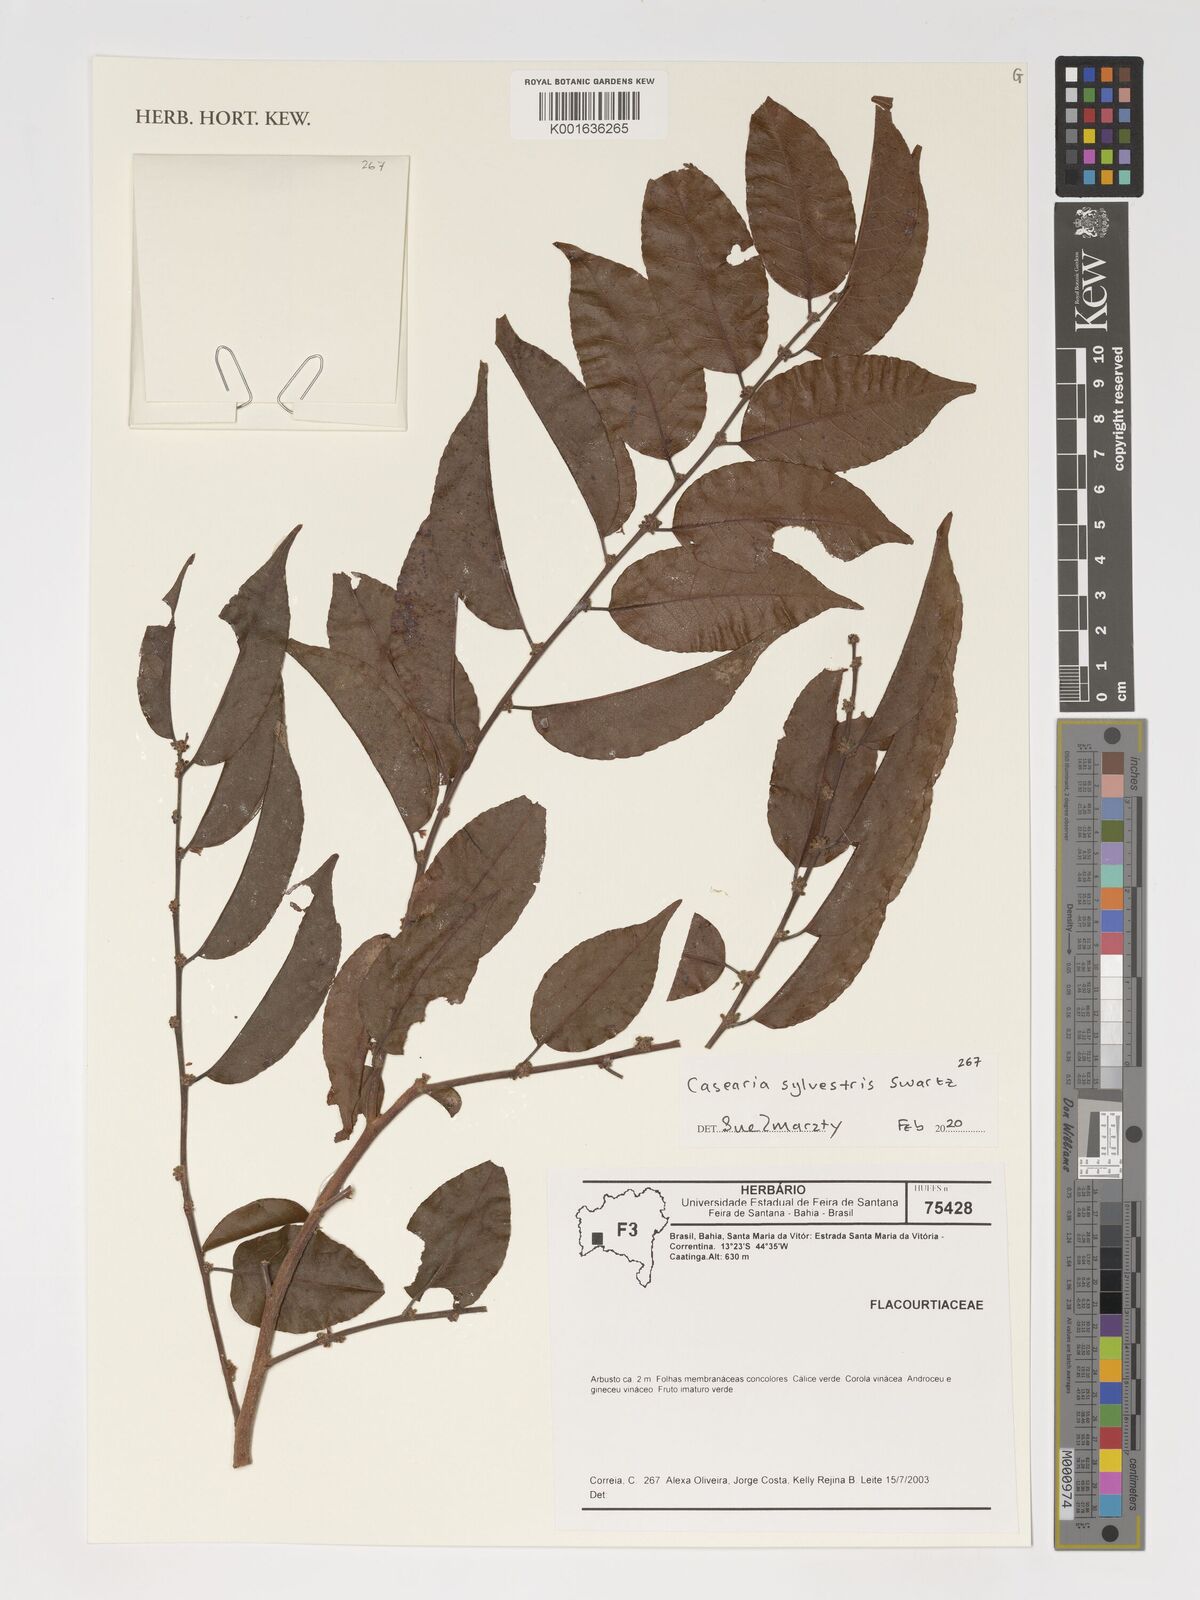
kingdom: Plantae
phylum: Tracheophyta
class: Magnoliopsida
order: Malpighiales
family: Salicaceae
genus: Casearia
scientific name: Casearia sylvestris
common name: Wild sage
